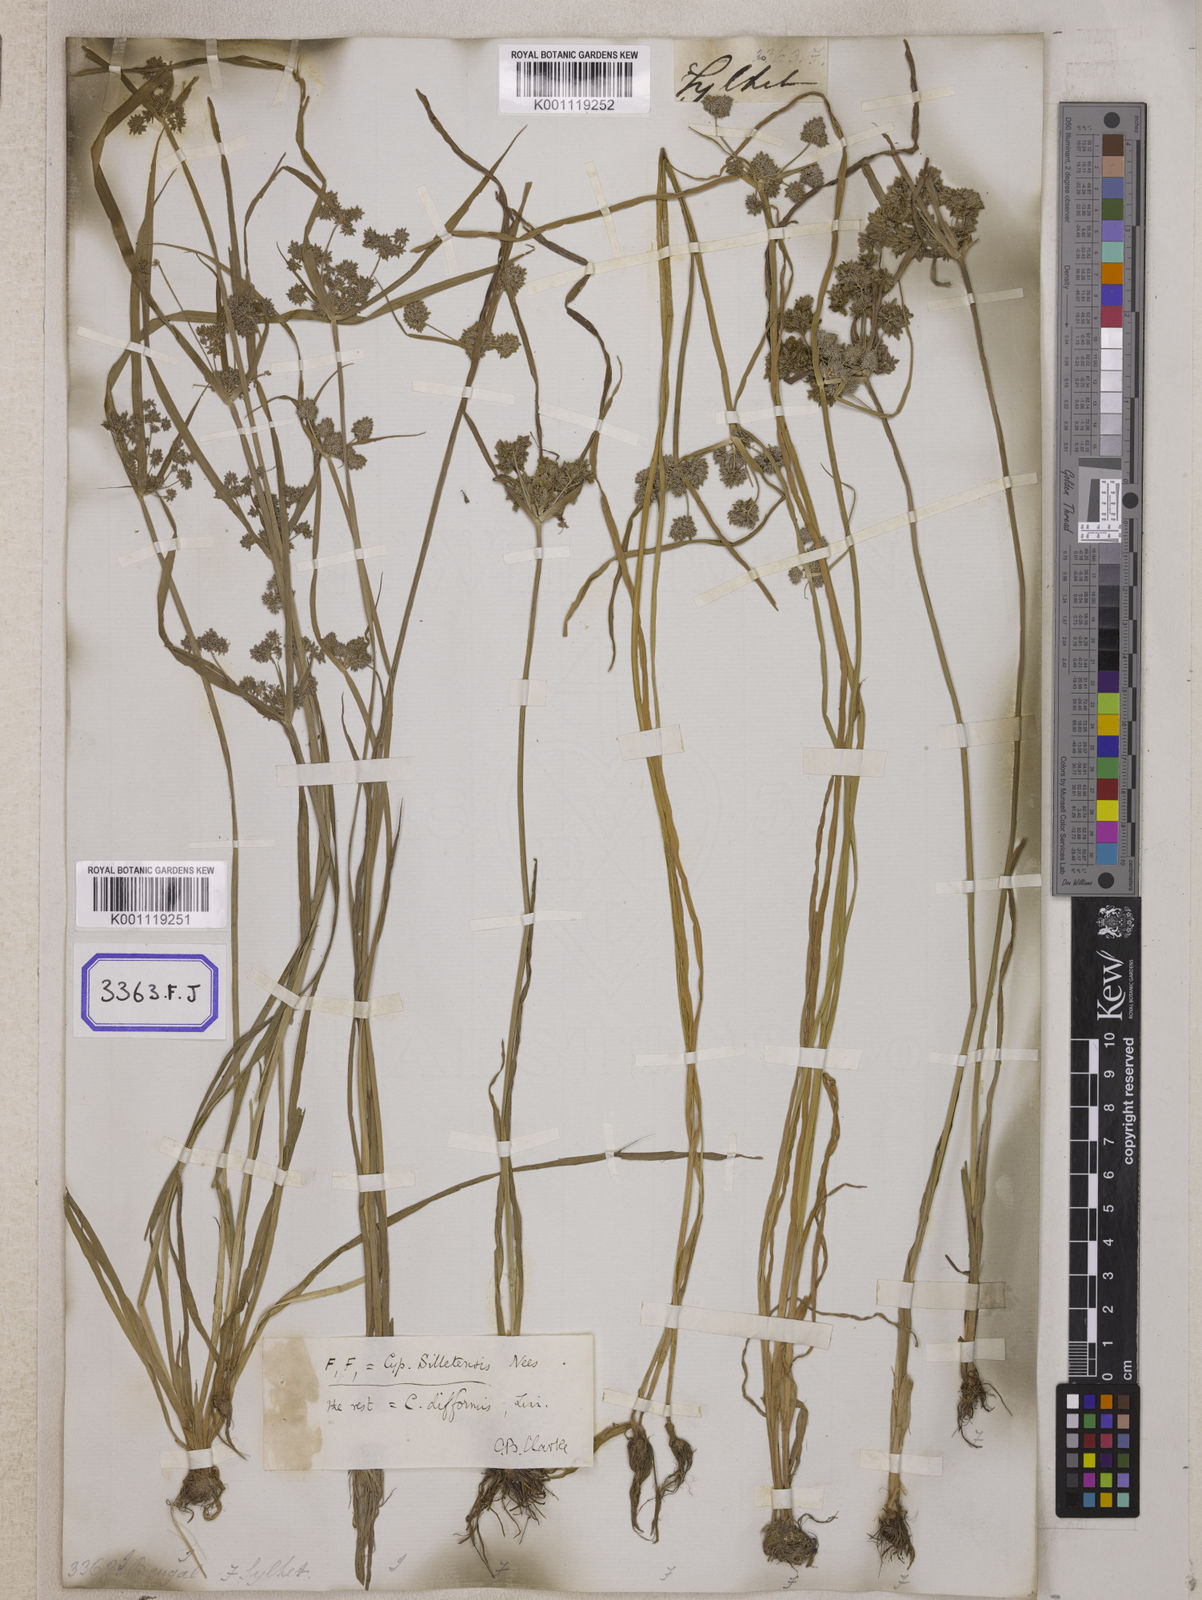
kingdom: Plantae
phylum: Tracheophyta
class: Liliopsida
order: Poales
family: Cyperaceae
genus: Cyperus
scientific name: Cyperus
